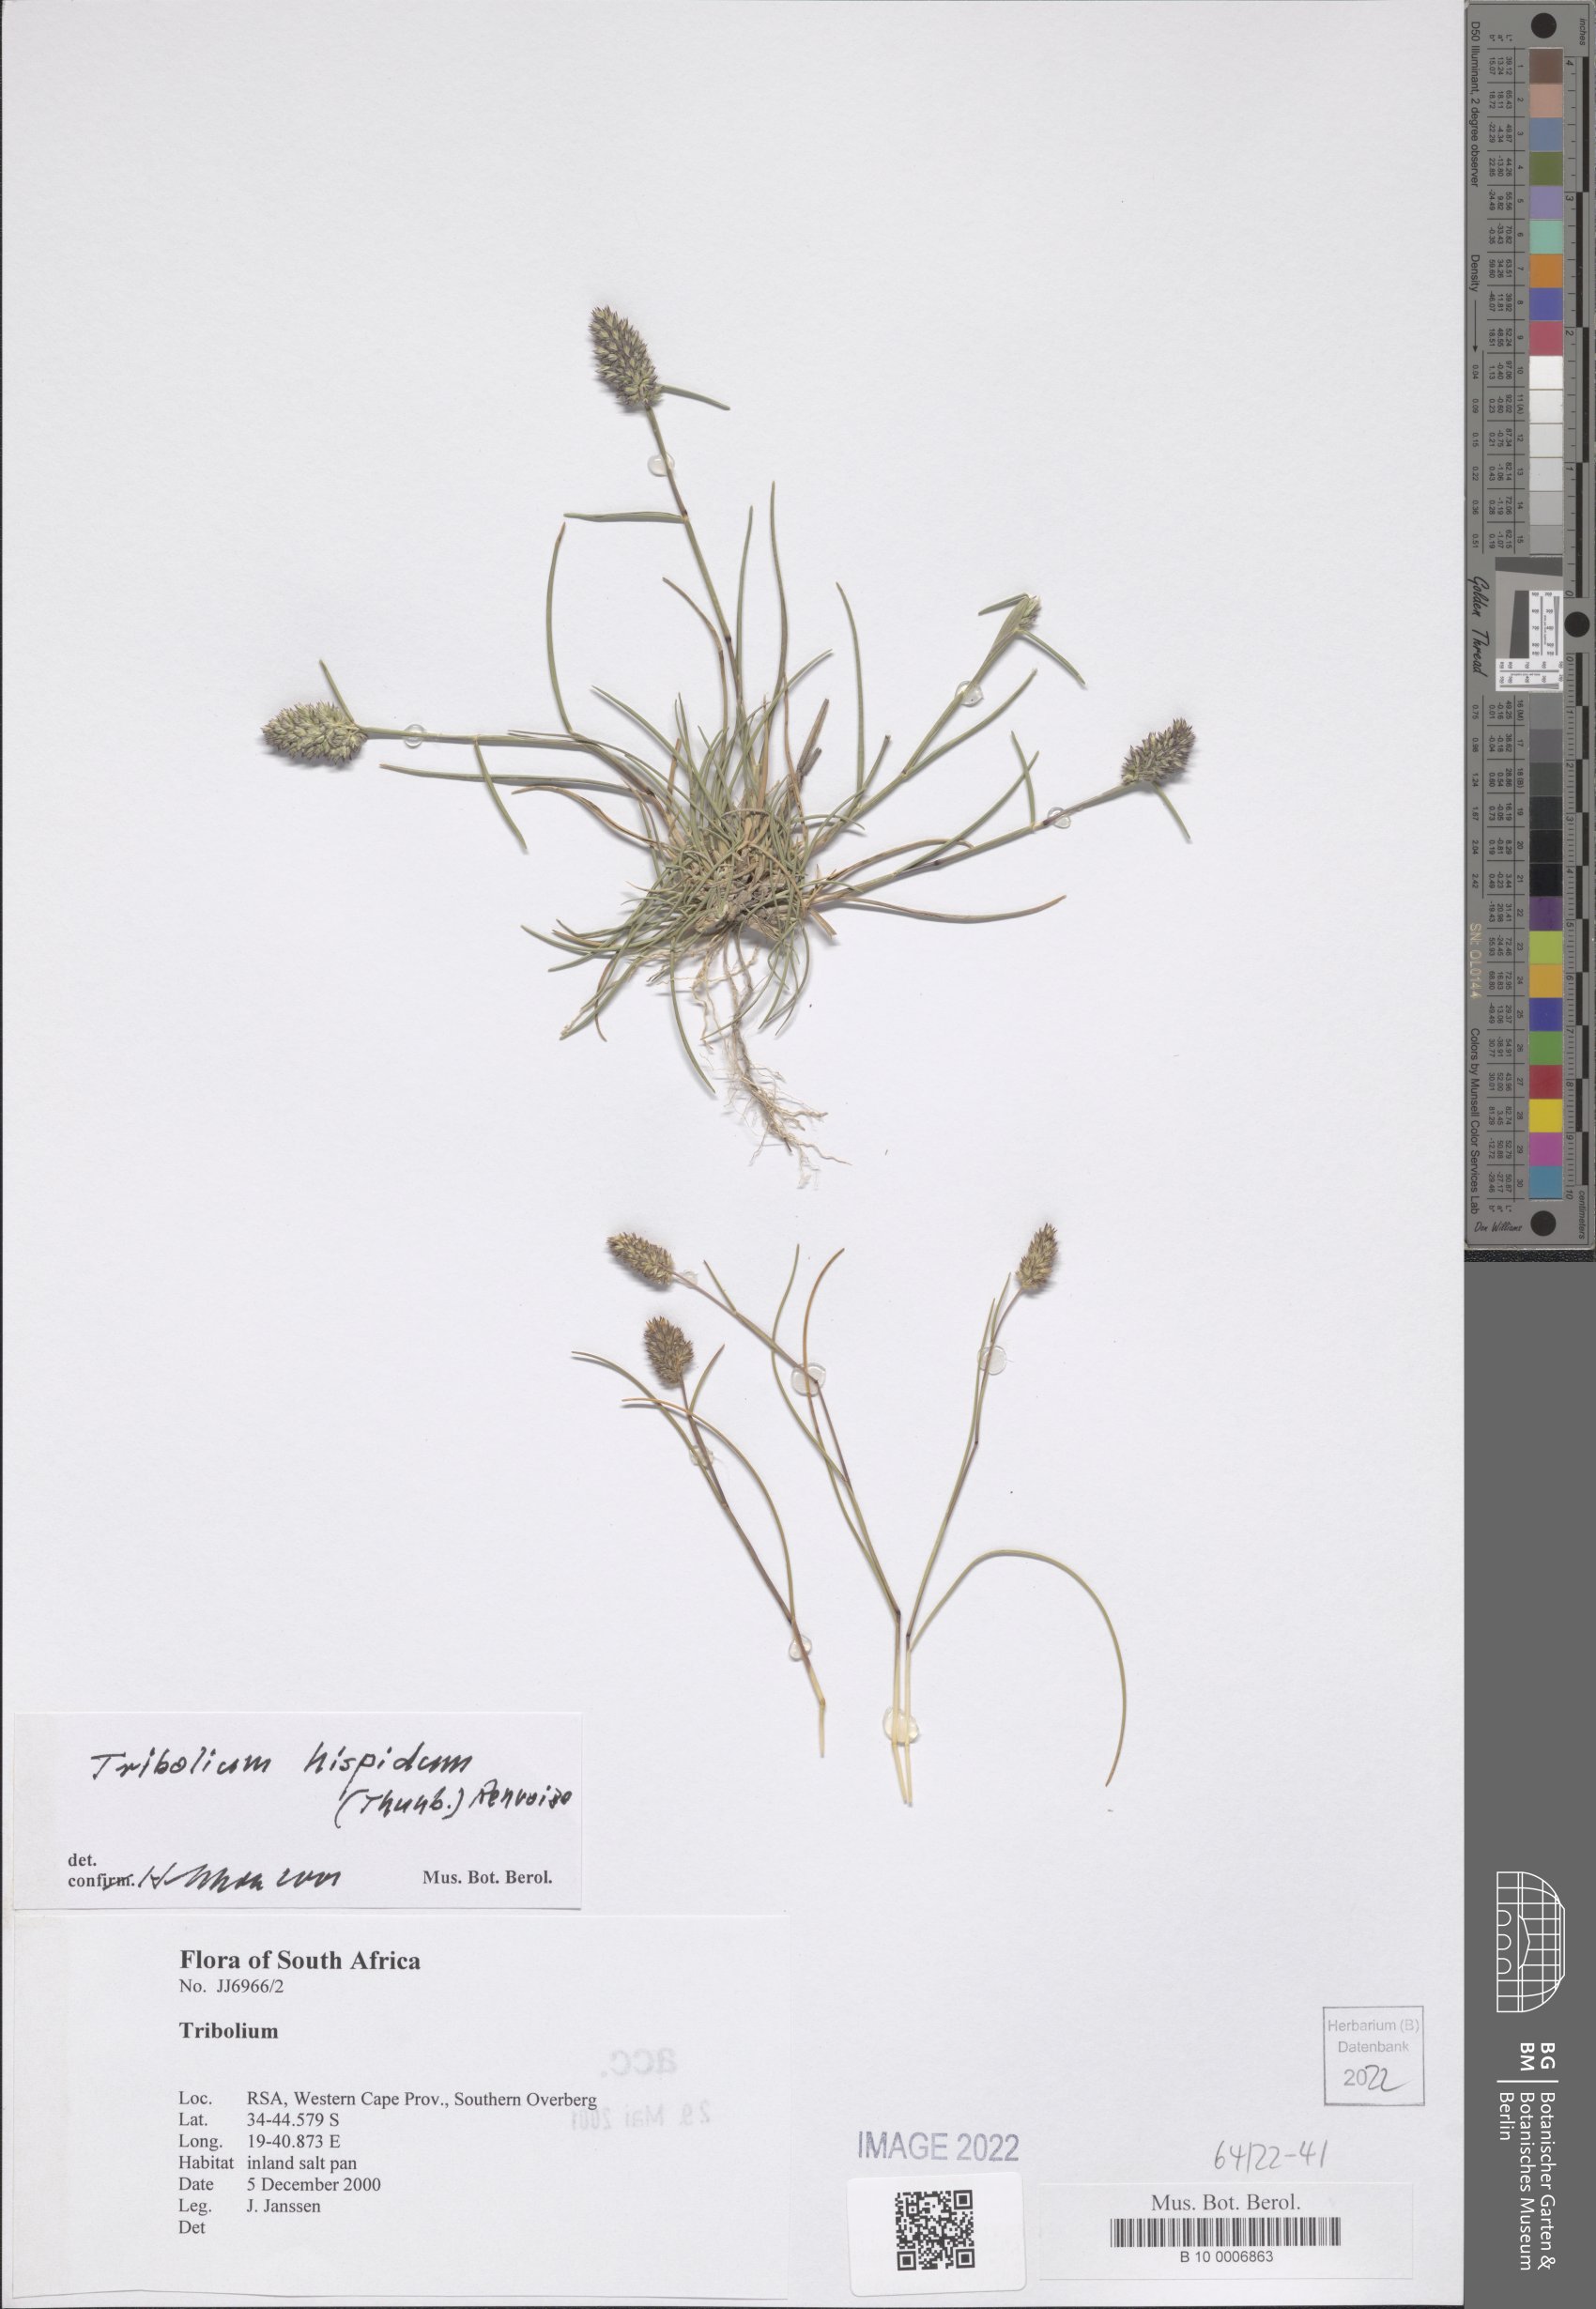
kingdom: Plantae
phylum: Tracheophyta
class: Liliopsida
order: Poales
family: Poaceae
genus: Tribolium
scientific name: Tribolium hispidum
